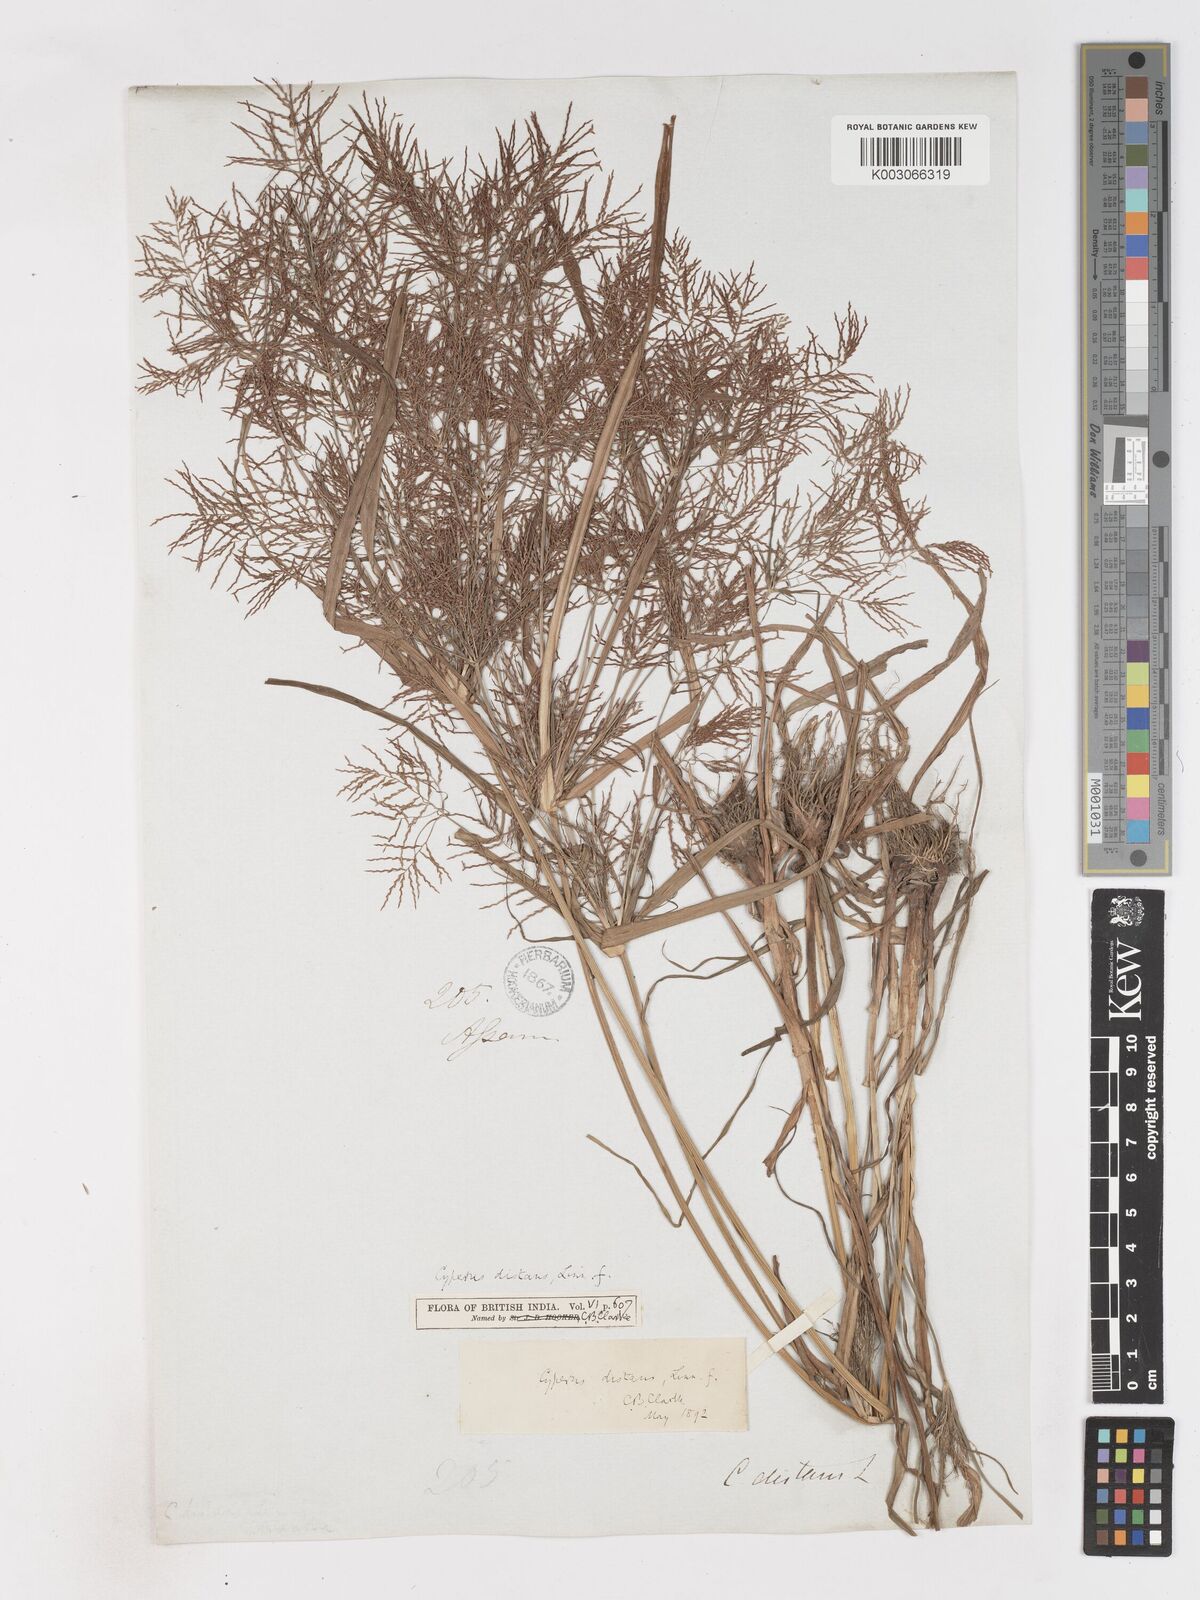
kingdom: Plantae
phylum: Tracheophyta
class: Liliopsida
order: Poales
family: Cyperaceae
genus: Cyperus
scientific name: Cyperus distans
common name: Slender cyperus
